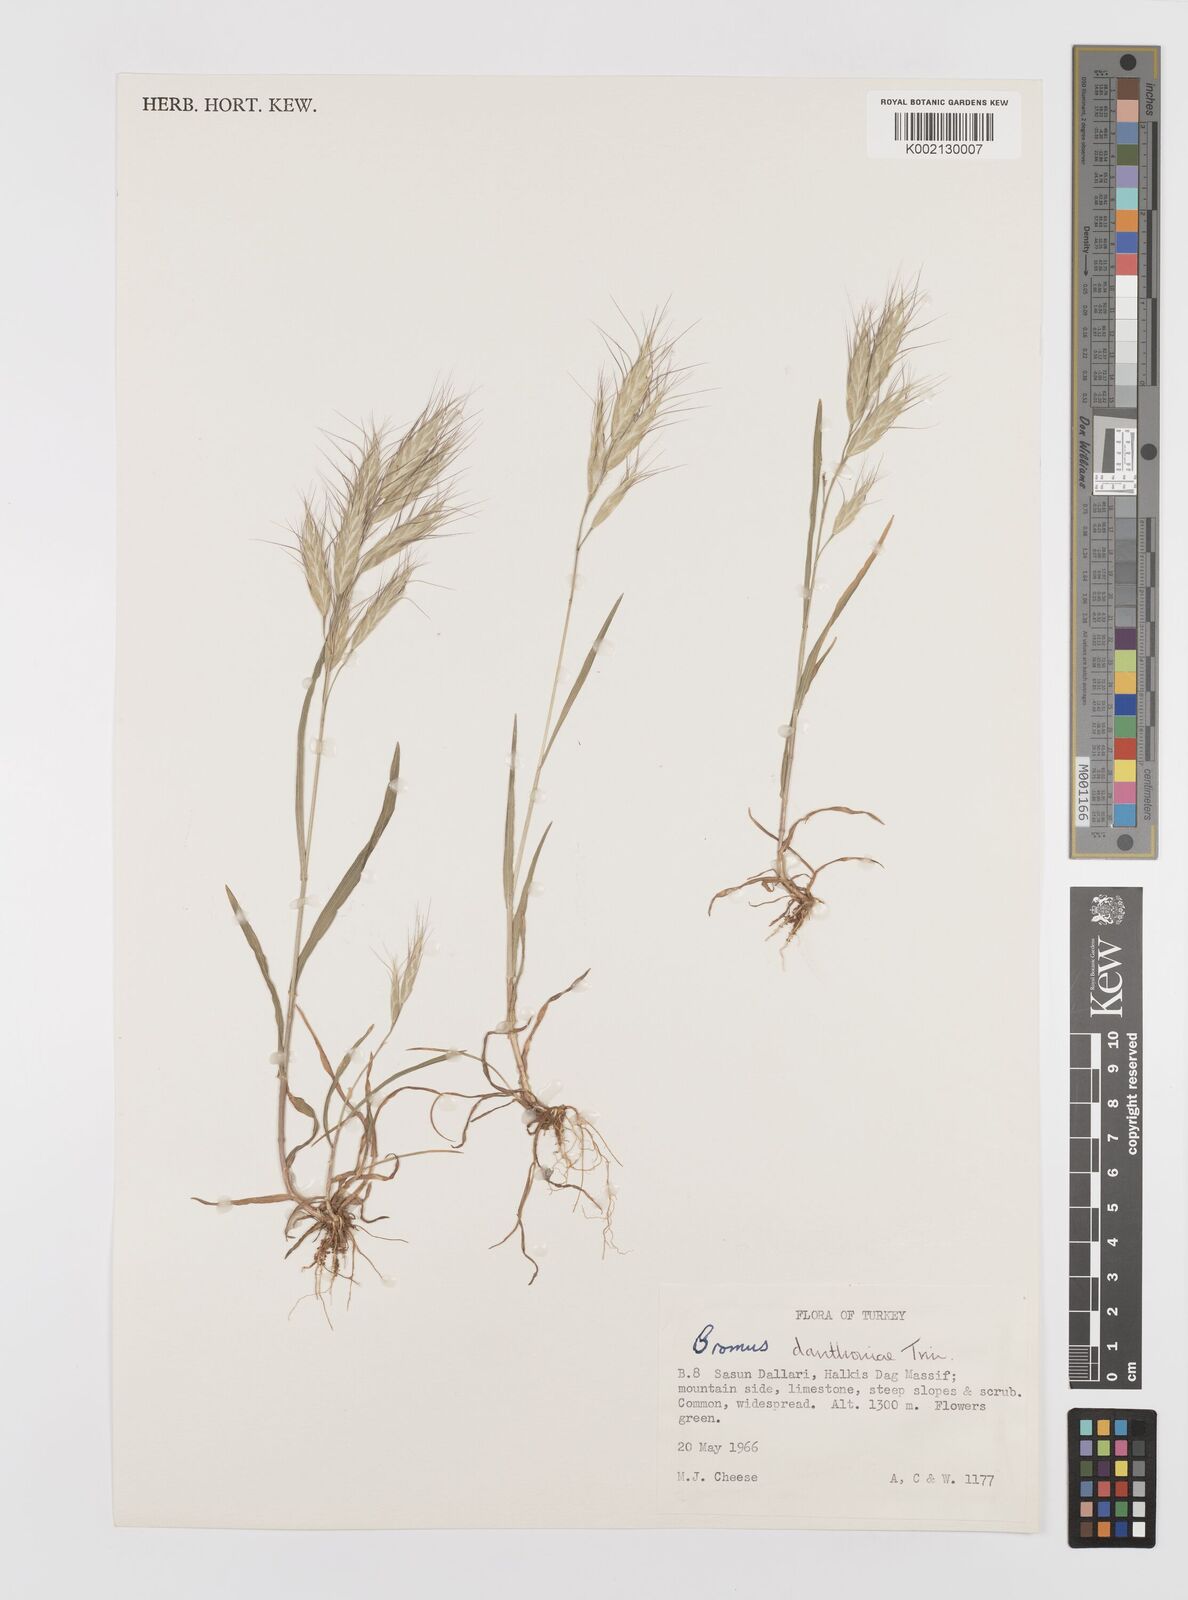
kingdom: Plantae
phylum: Tracheophyta
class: Liliopsida
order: Poales
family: Poaceae
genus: Bromus
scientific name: Bromus danthoniae
